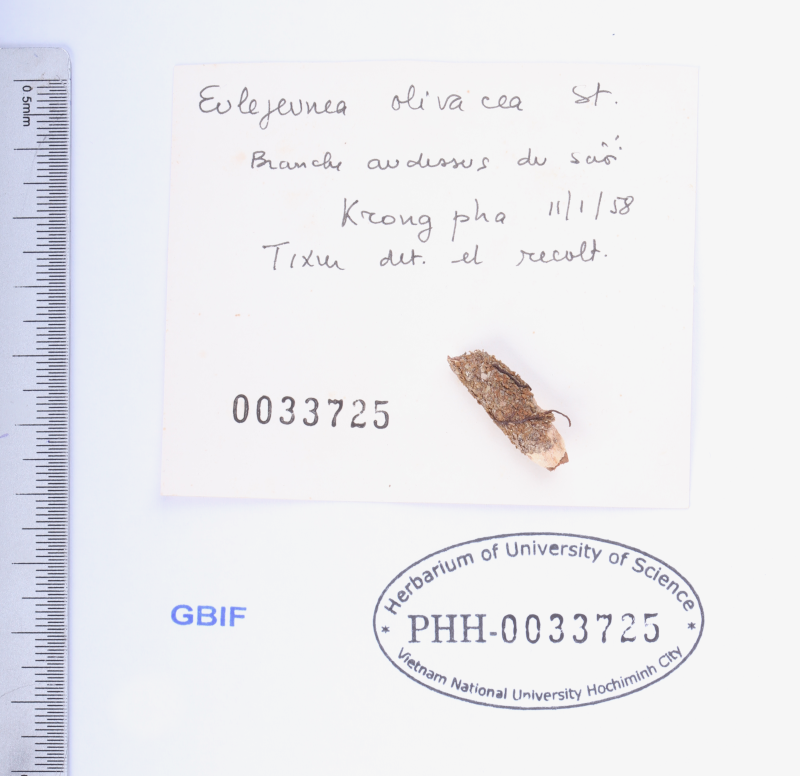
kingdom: Plantae
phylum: Marchantiophyta
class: Jungermanniopsida
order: Porellales
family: Lejeuneaceae
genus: Lejeunea
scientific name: Lejeunea subolivacea
